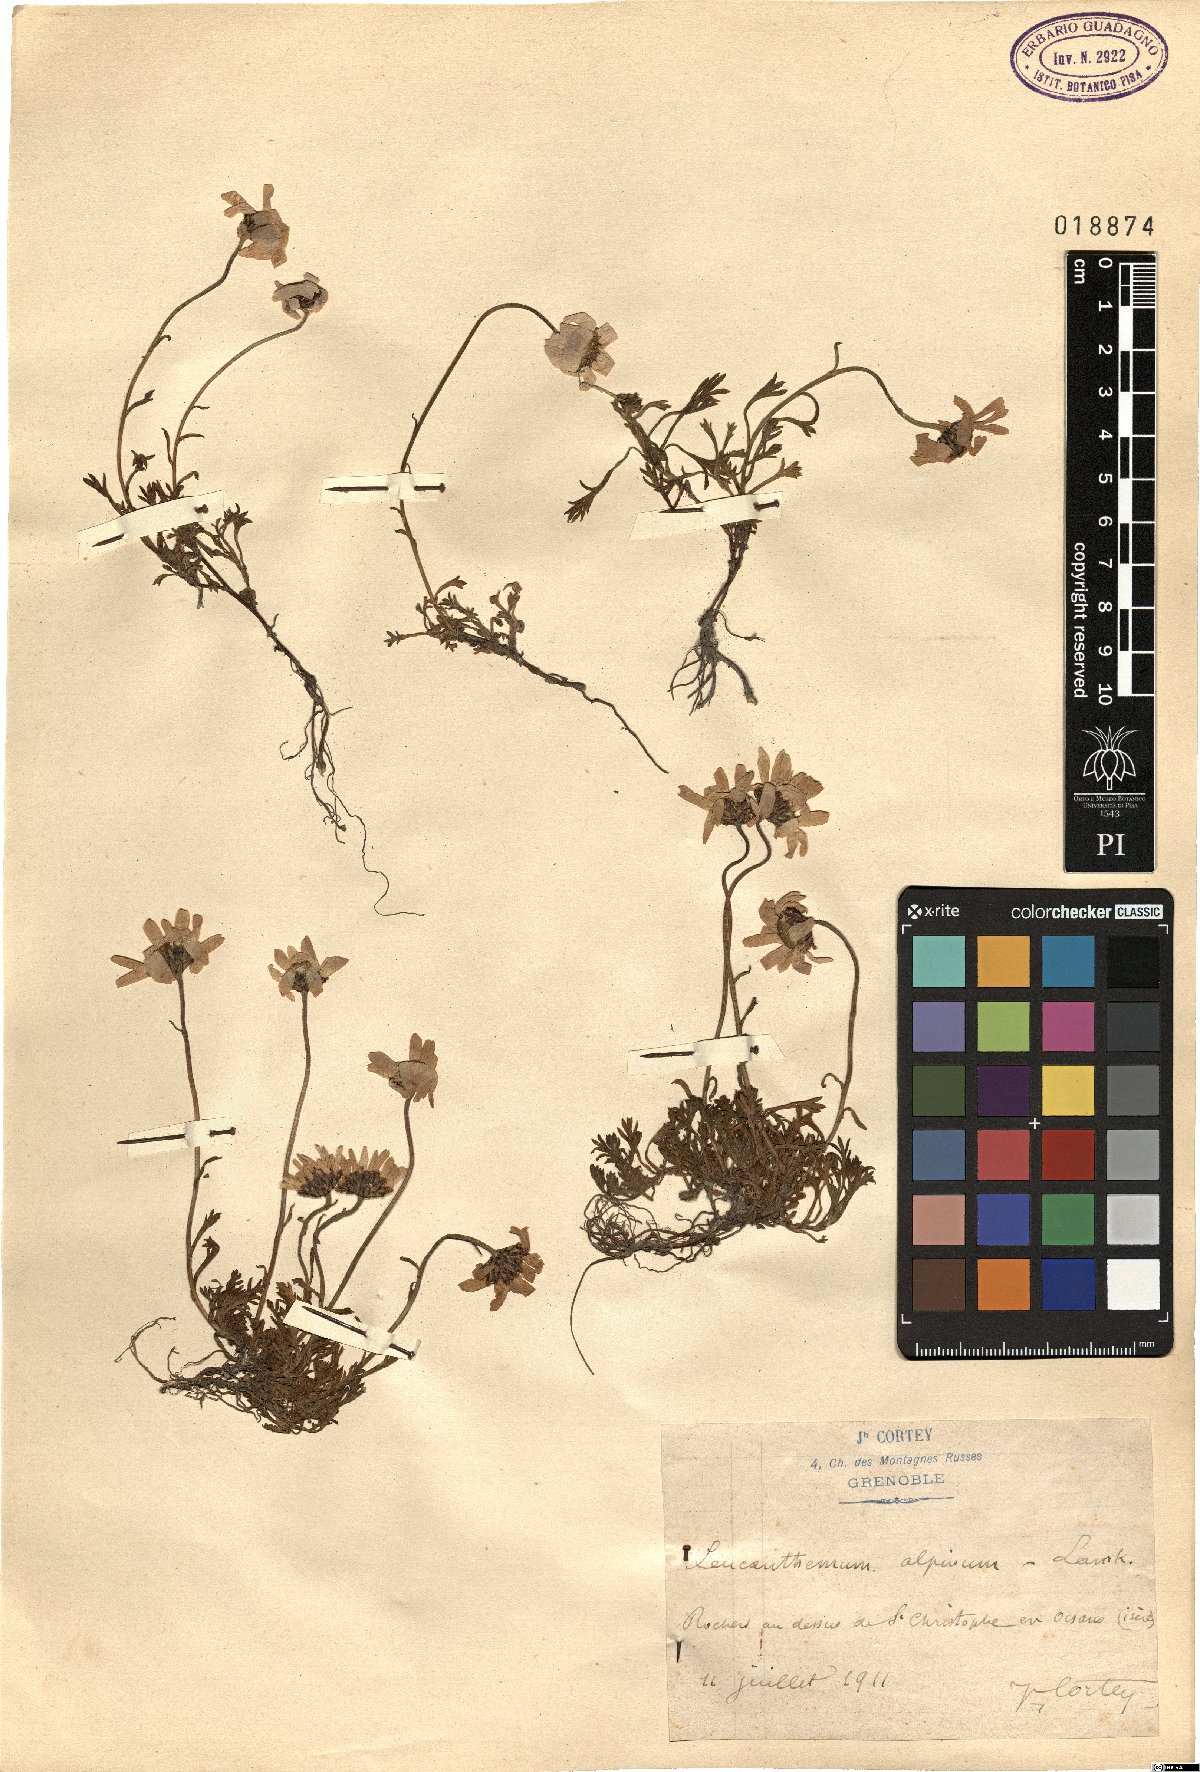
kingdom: Plantae
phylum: Tracheophyta
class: Magnoliopsida
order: Asterales
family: Asteraceae
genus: Leucanthemopsis
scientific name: Leucanthemopsis alpina
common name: Alpine moon daisy
